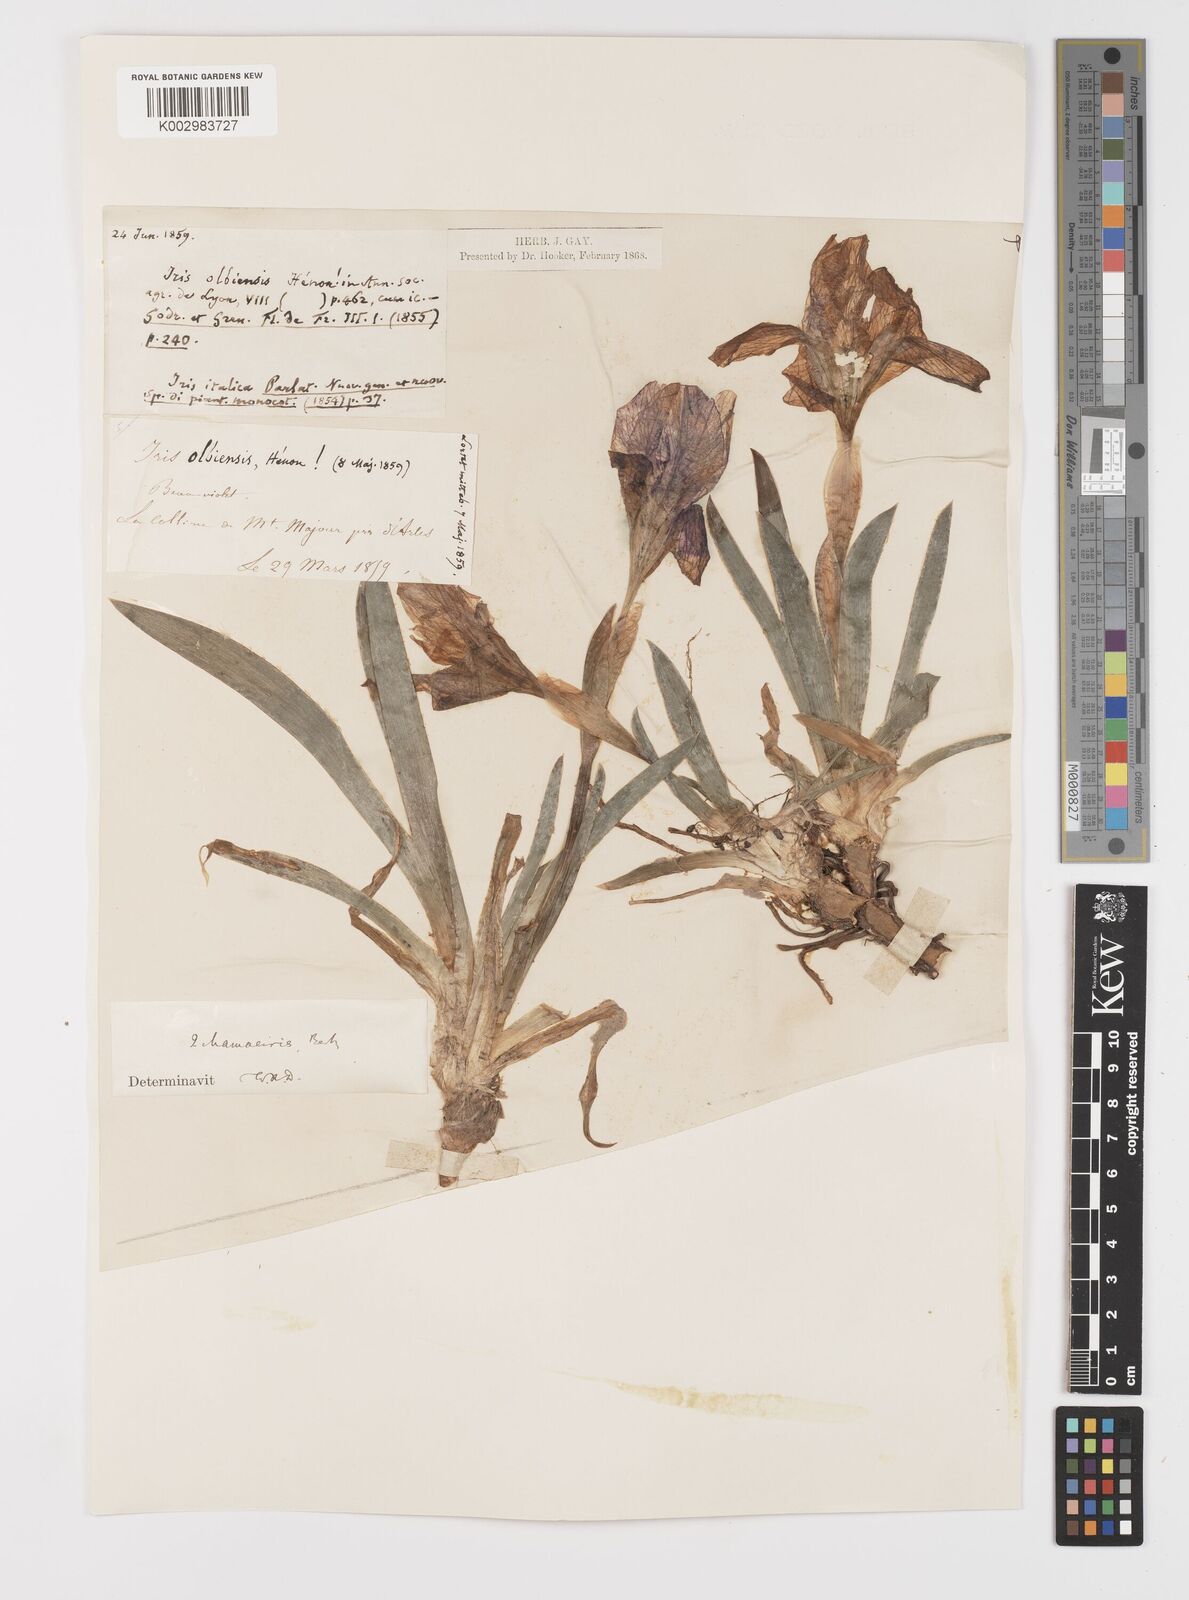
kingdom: Plantae
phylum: Tracheophyta
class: Liliopsida
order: Asparagales
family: Iridaceae
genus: Iris
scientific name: Iris lutescens
